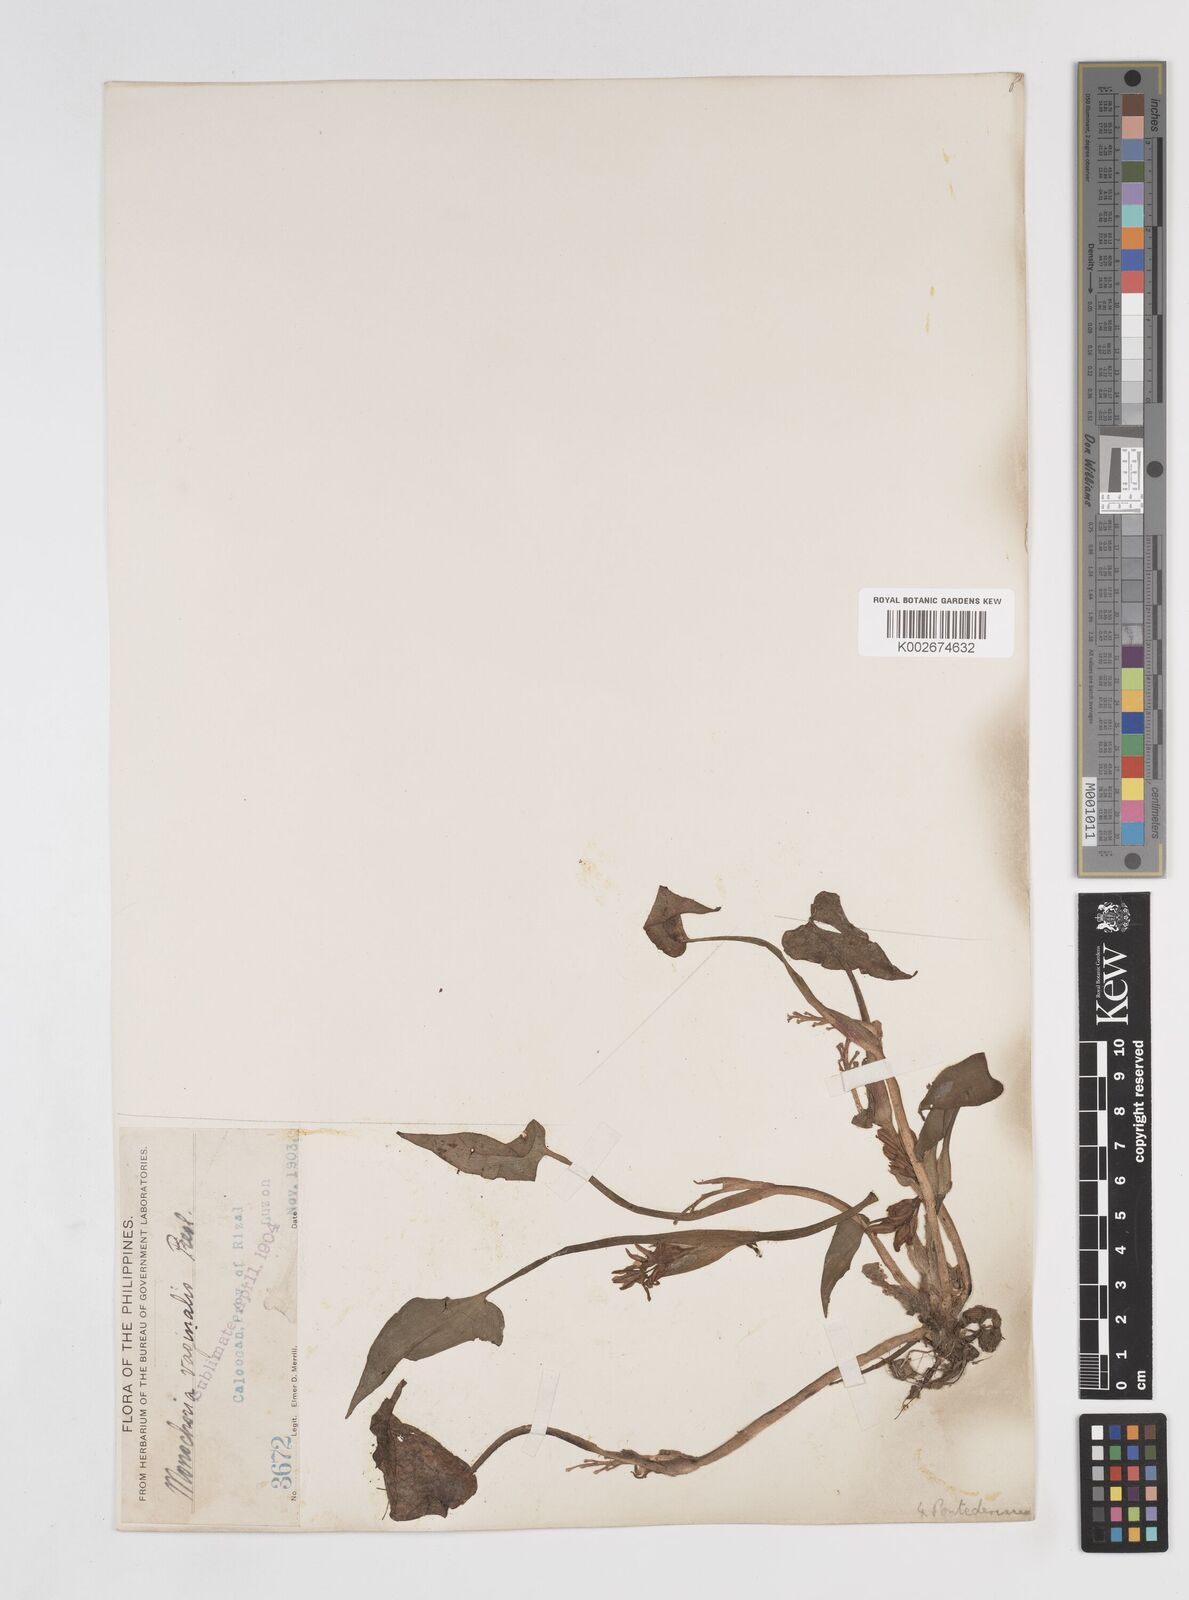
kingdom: Plantae
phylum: Tracheophyta
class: Liliopsida
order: Commelinales
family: Pontederiaceae
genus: Pontederia
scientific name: Pontederia vaginalis
